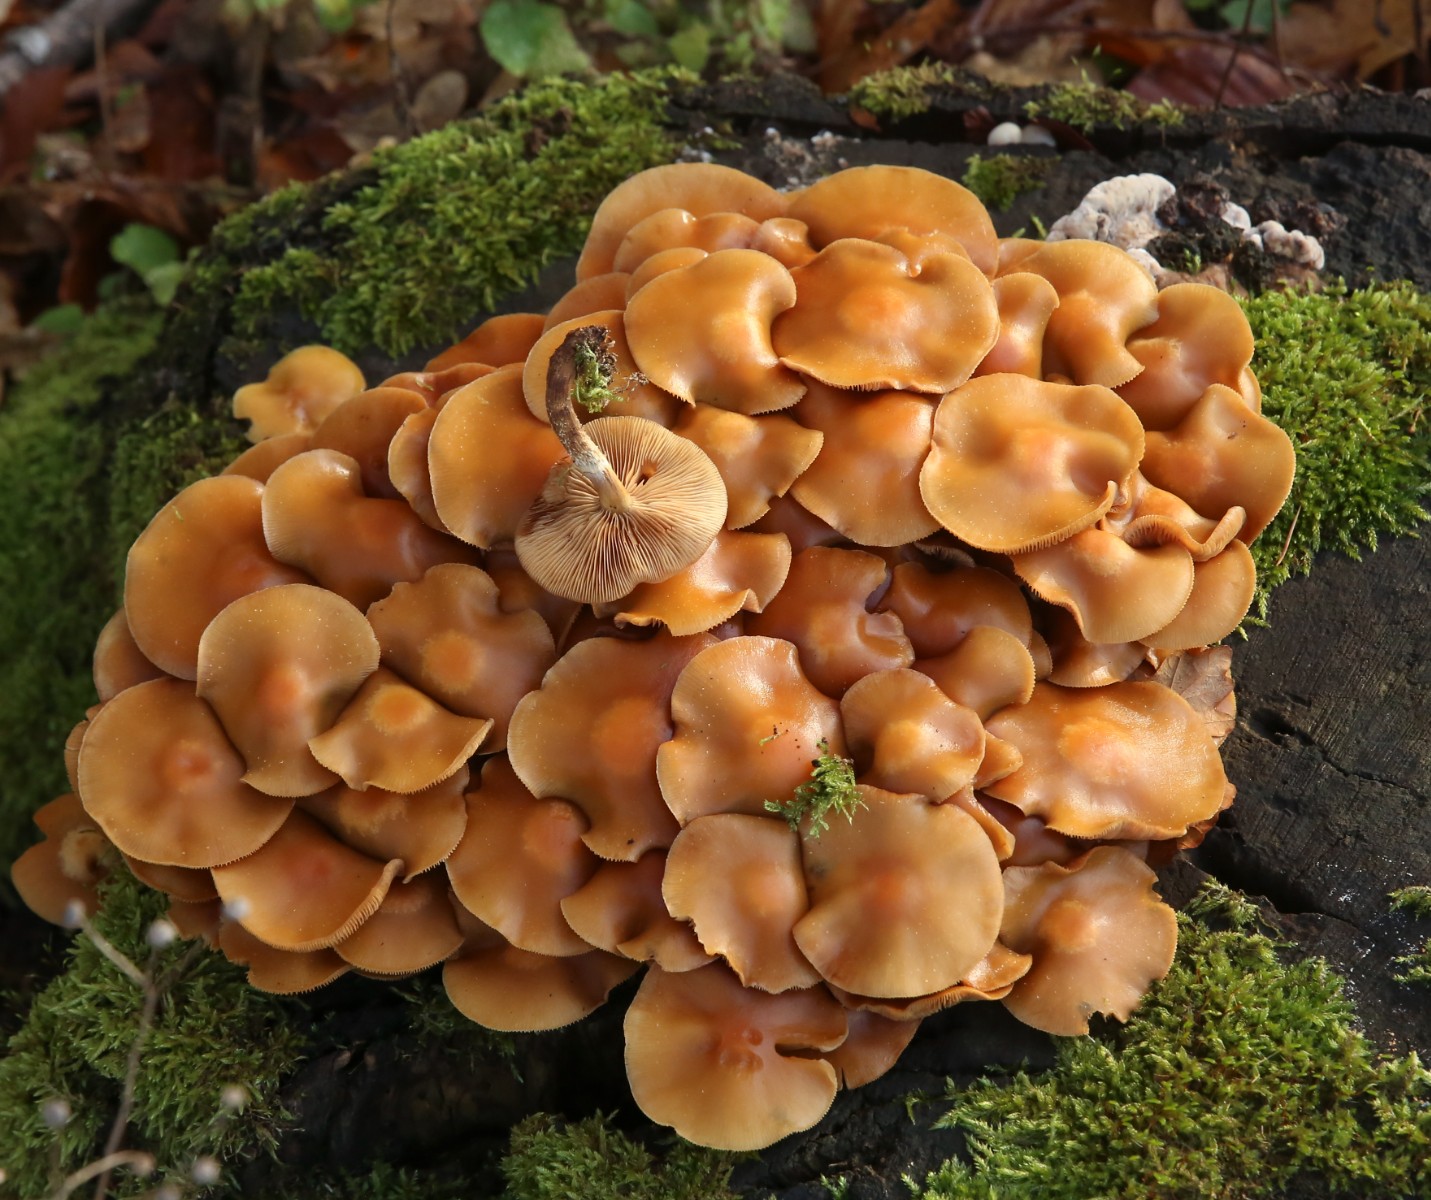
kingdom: Fungi
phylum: Basidiomycota
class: Agaricomycetes
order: Agaricales
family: Strophariaceae
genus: Kuehneromyces
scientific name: Kuehneromyces mutabilis
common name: foranderlig skælhat
